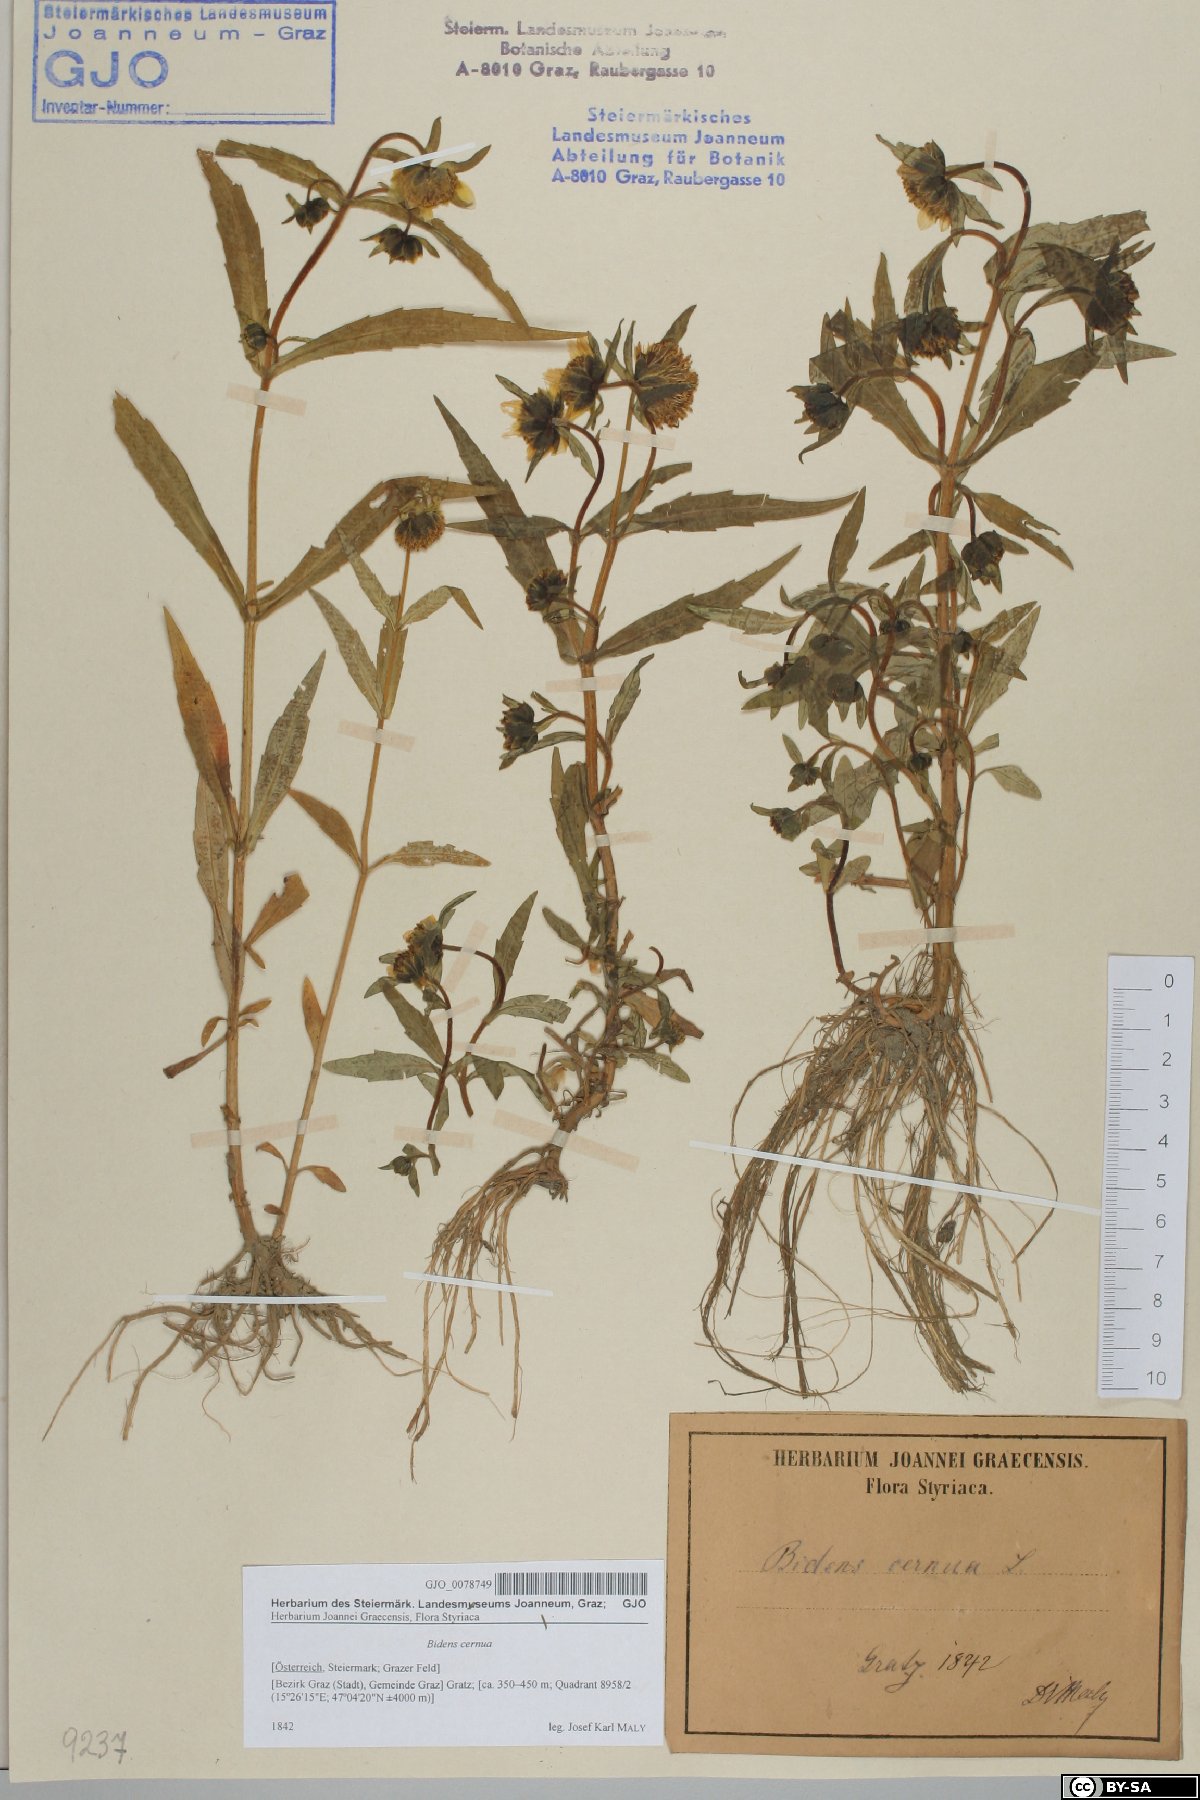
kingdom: Plantae
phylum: Tracheophyta
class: Magnoliopsida
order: Asterales
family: Asteraceae
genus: Bidens
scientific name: Bidens cernua
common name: Nodding bur-marigold
